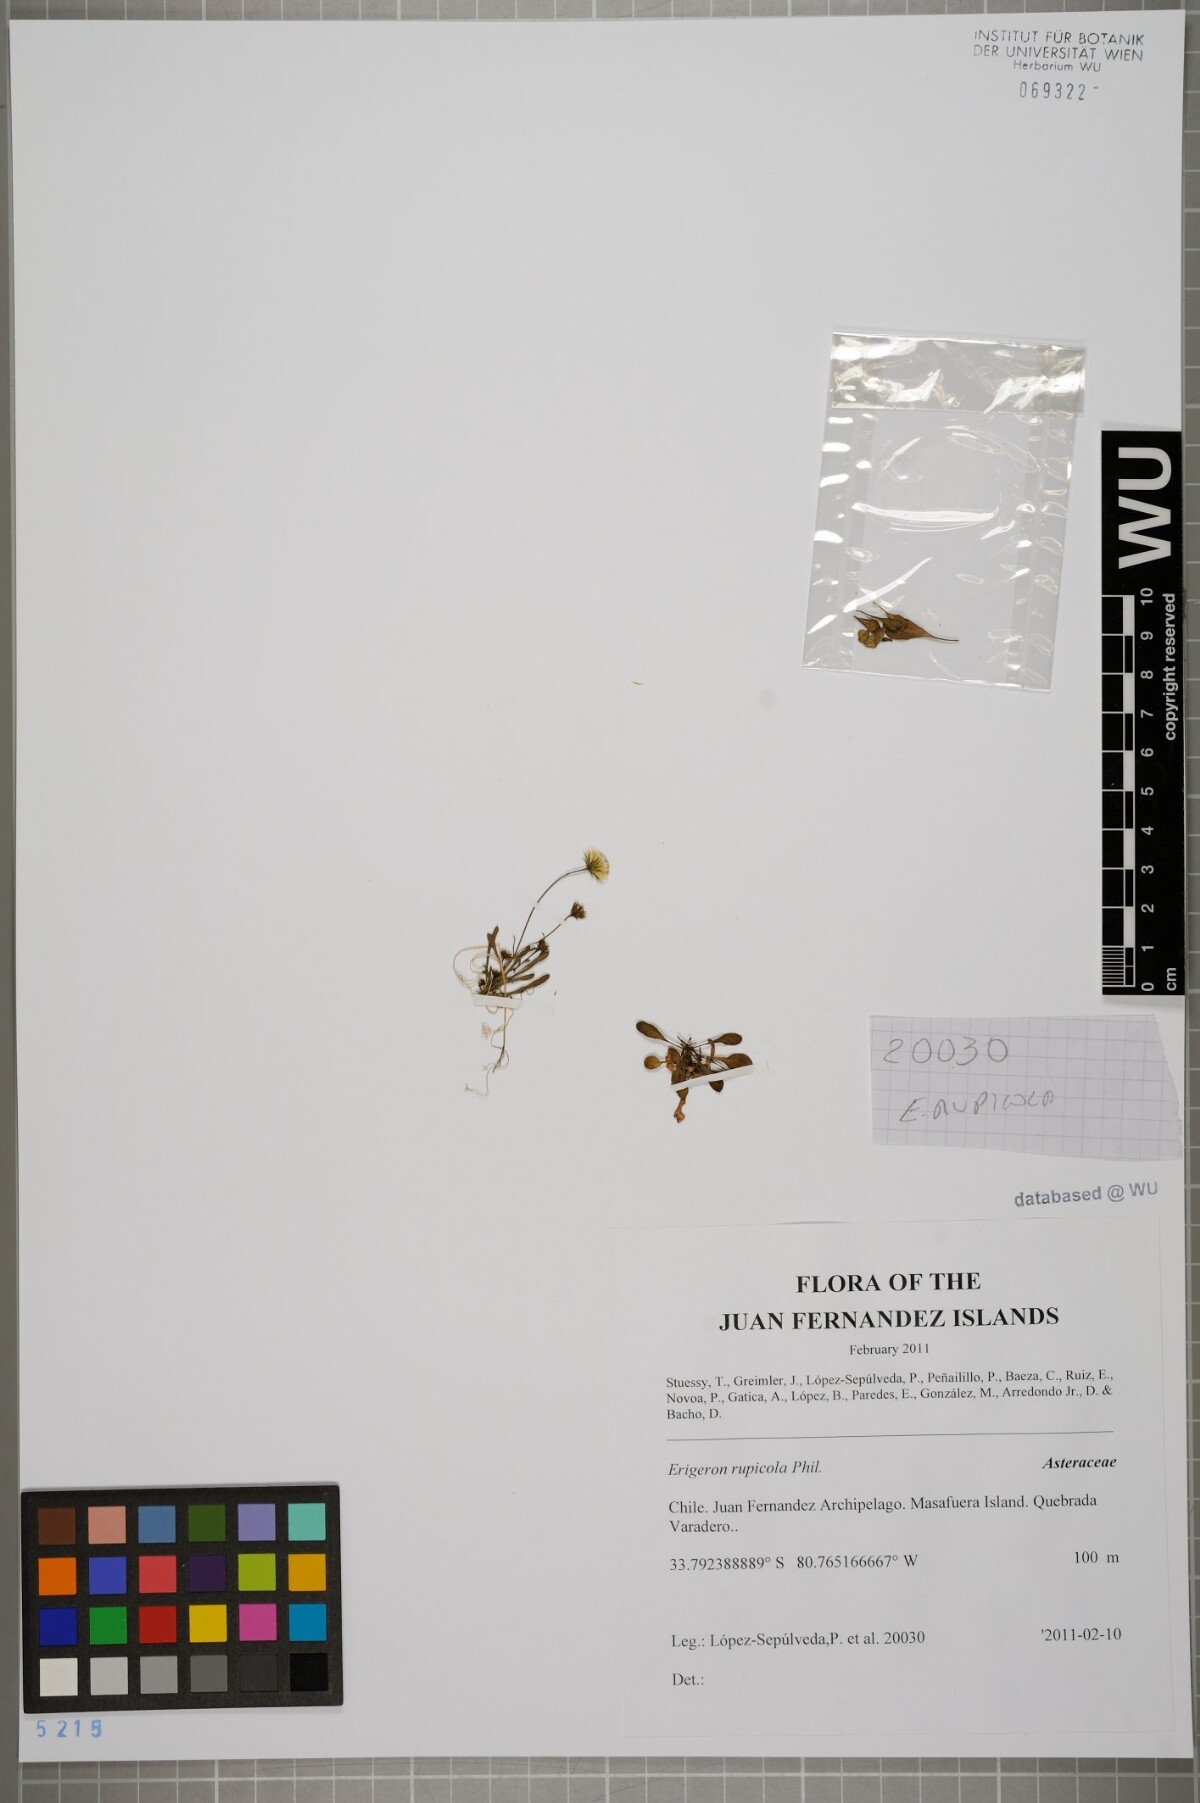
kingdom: Plantae
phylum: Tracheophyta
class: Magnoliopsida
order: Asterales
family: Asteraceae
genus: Erigeron
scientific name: Erigeron rupicola
